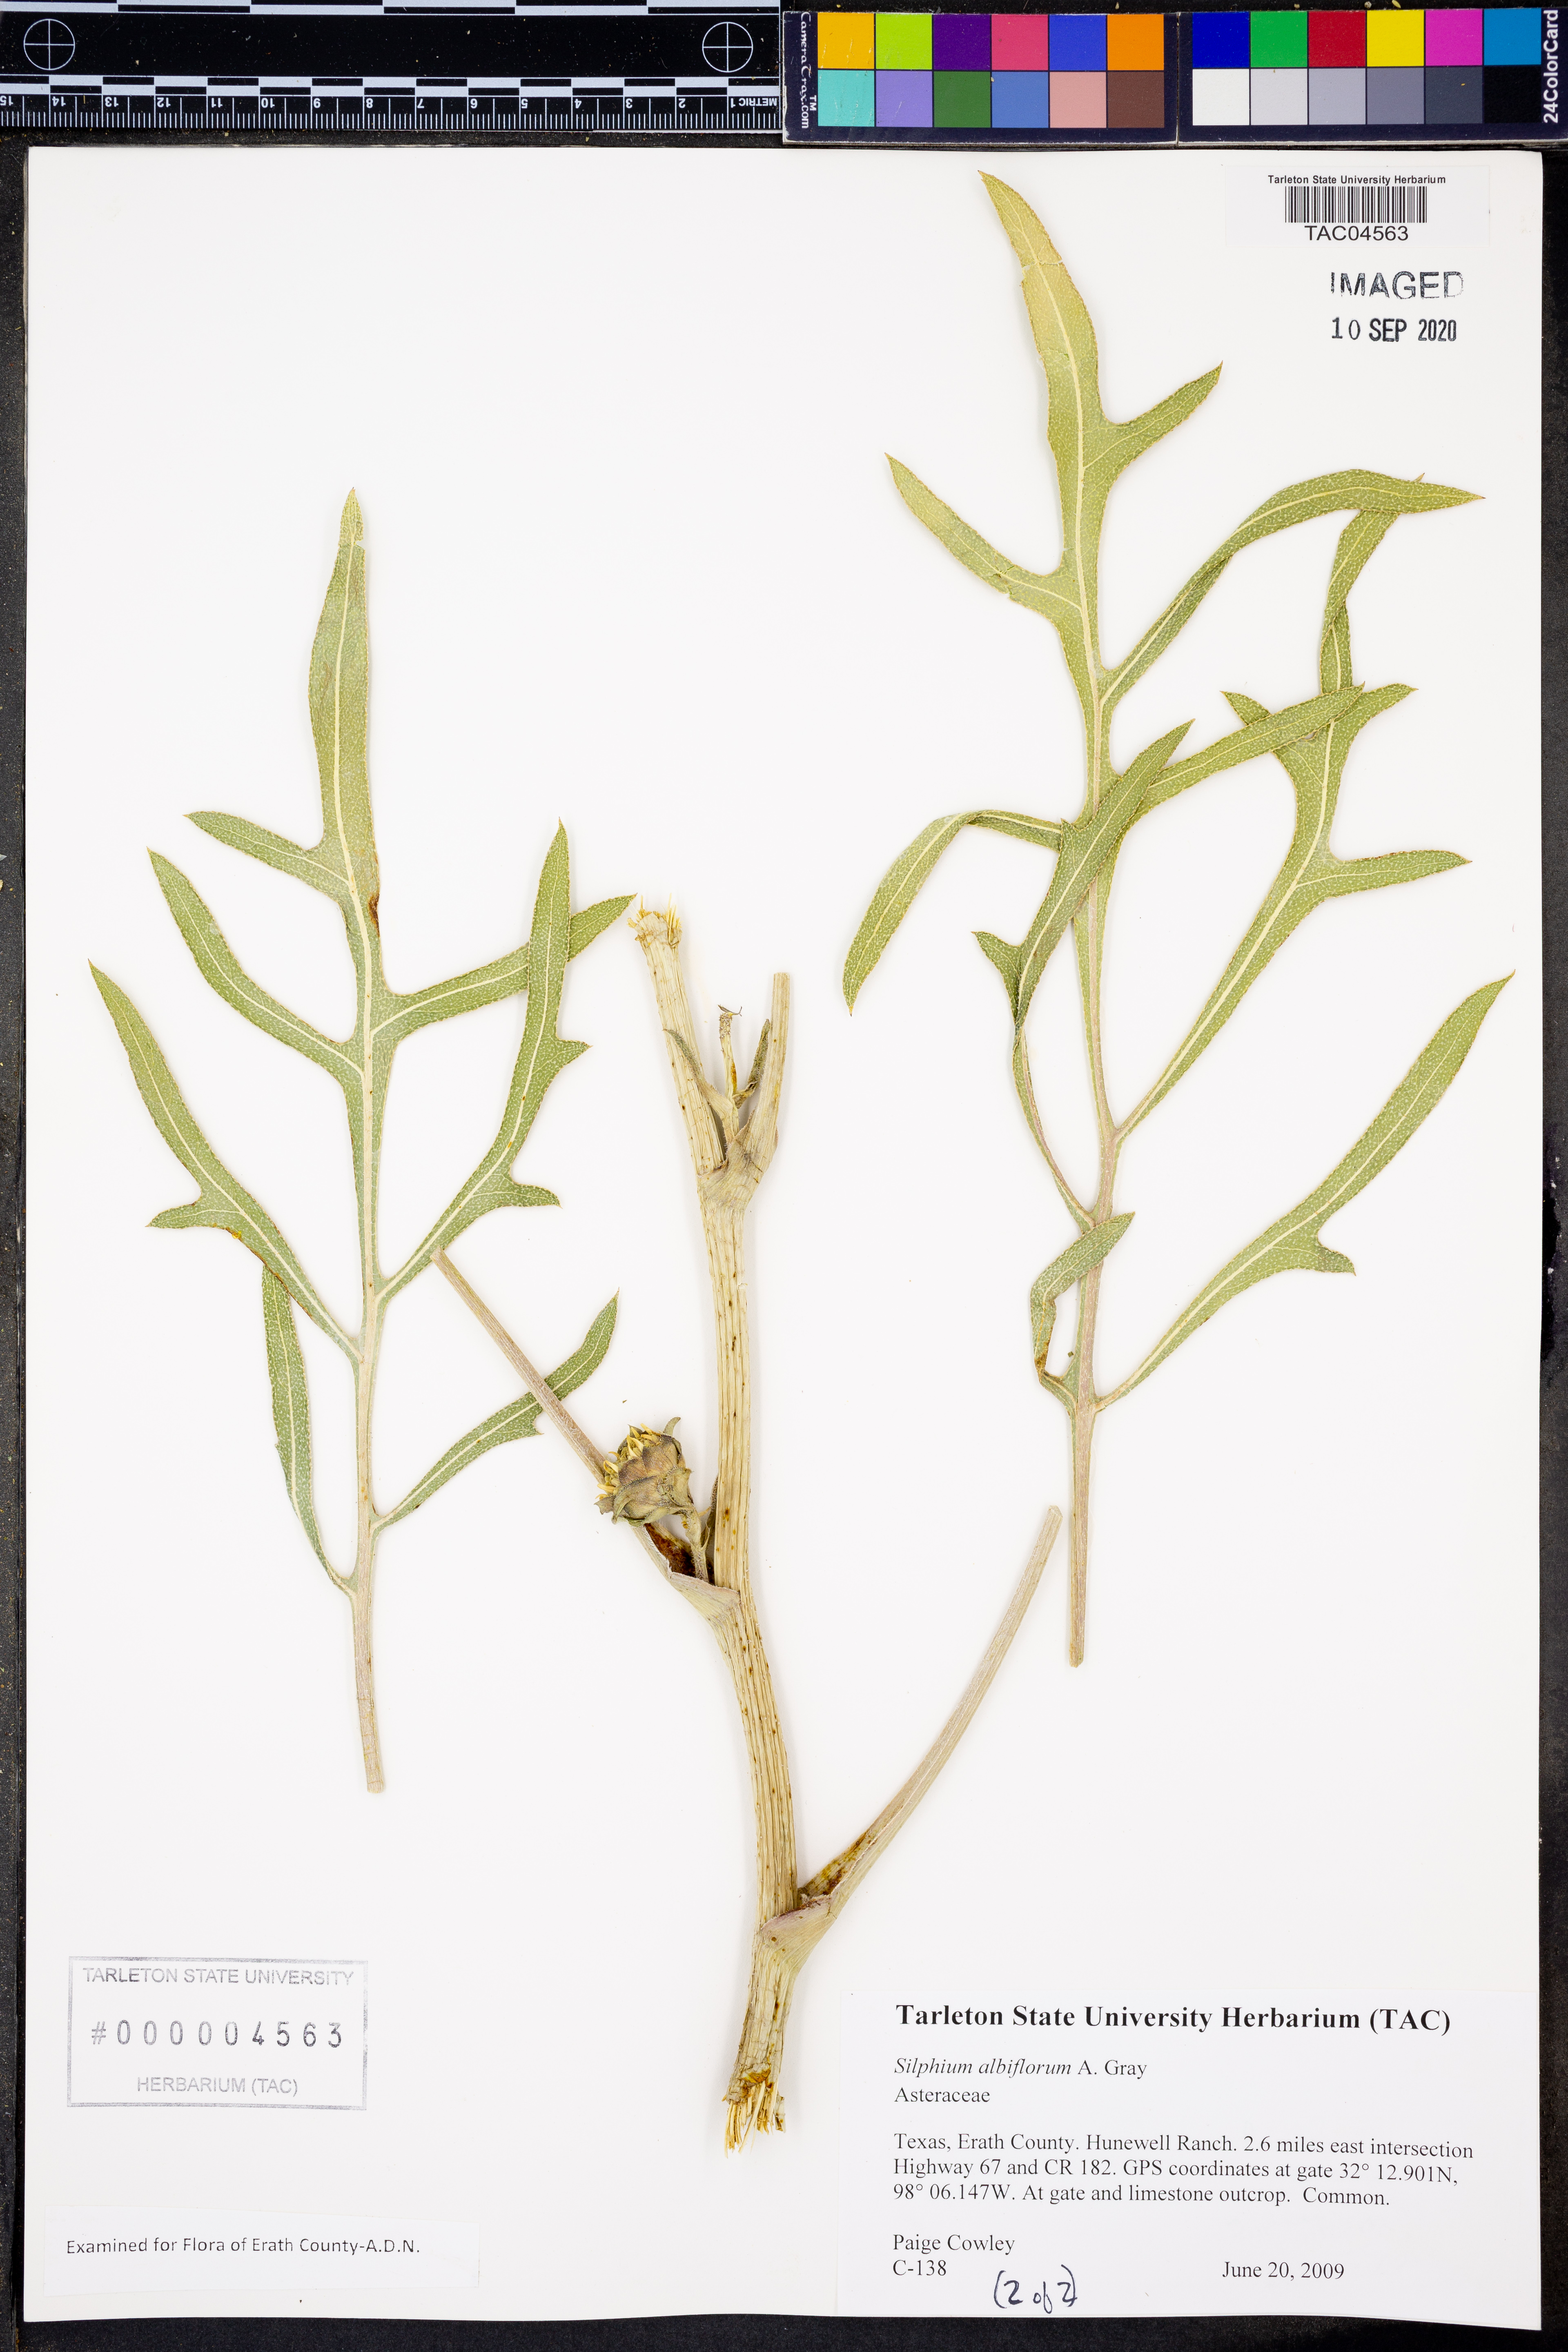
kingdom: Plantae
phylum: Tracheophyta
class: Magnoliopsida
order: Asterales
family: Asteraceae
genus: Silphium
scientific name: Silphium albiflorum
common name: White rosinweed
